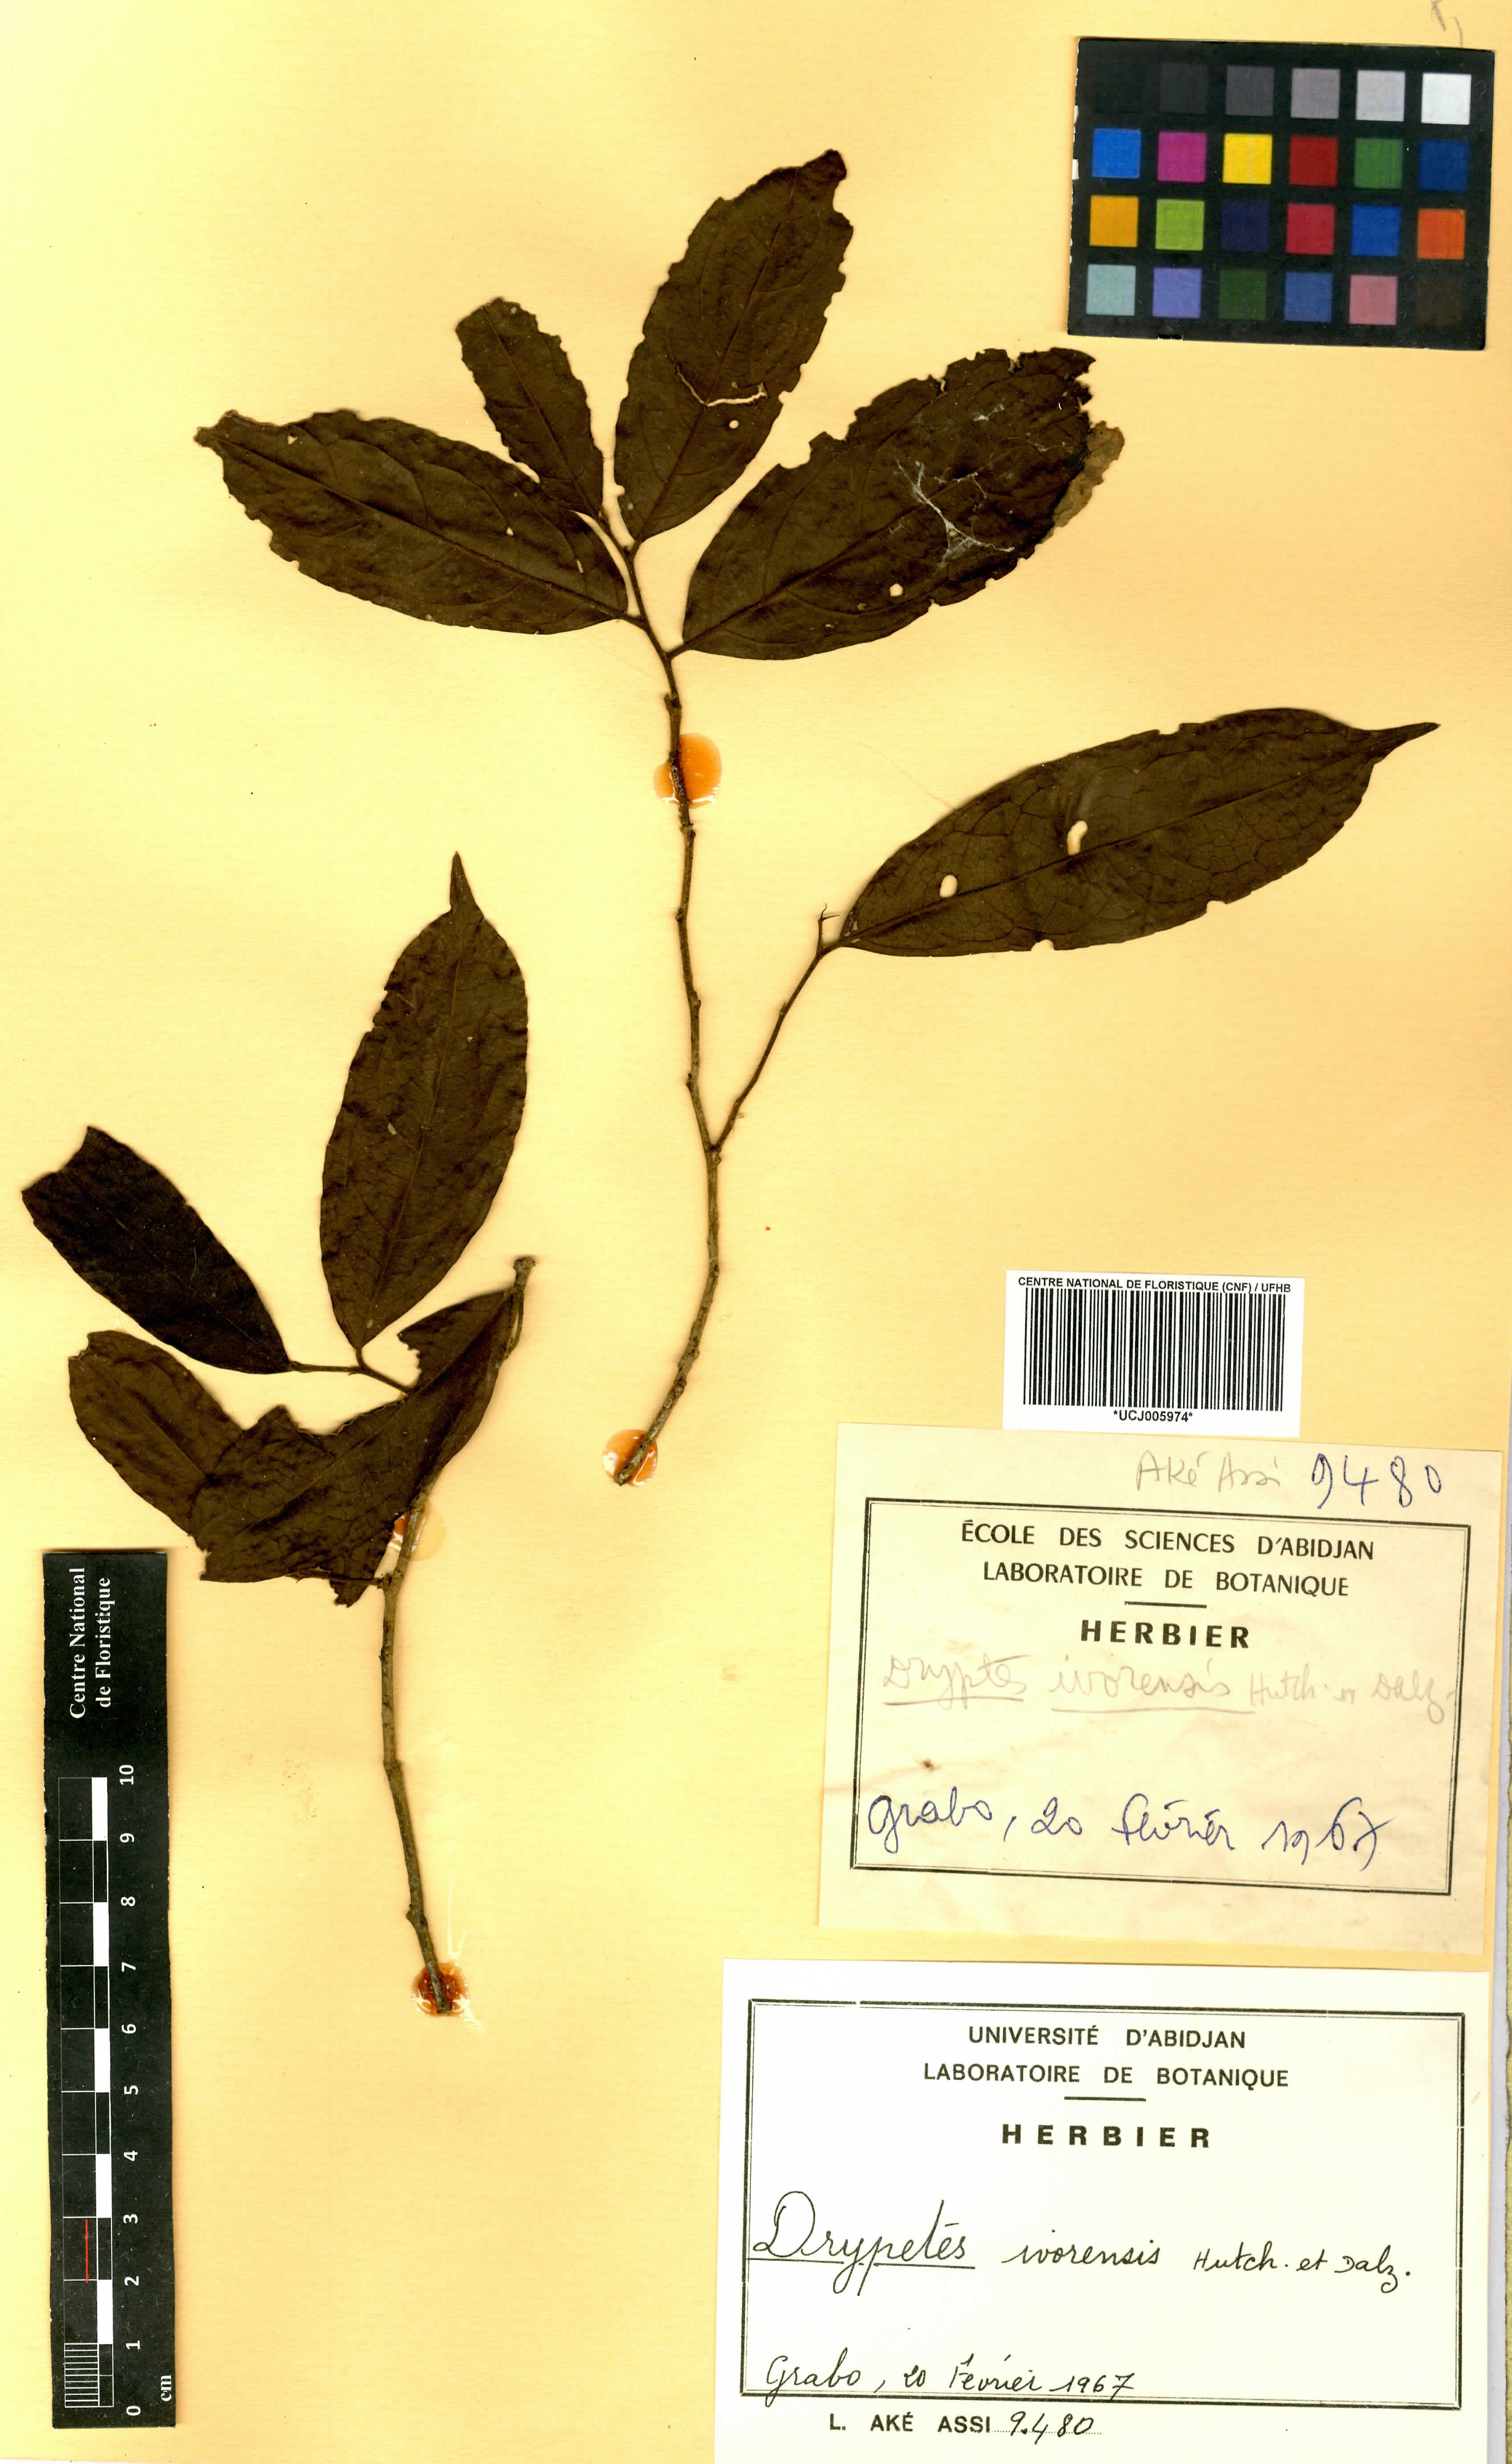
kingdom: Plantae
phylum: Tracheophyta
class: Magnoliopsida
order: Malpighiales
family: Putranjivaceae
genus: Drypetes
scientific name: Drypetes ivorensis
